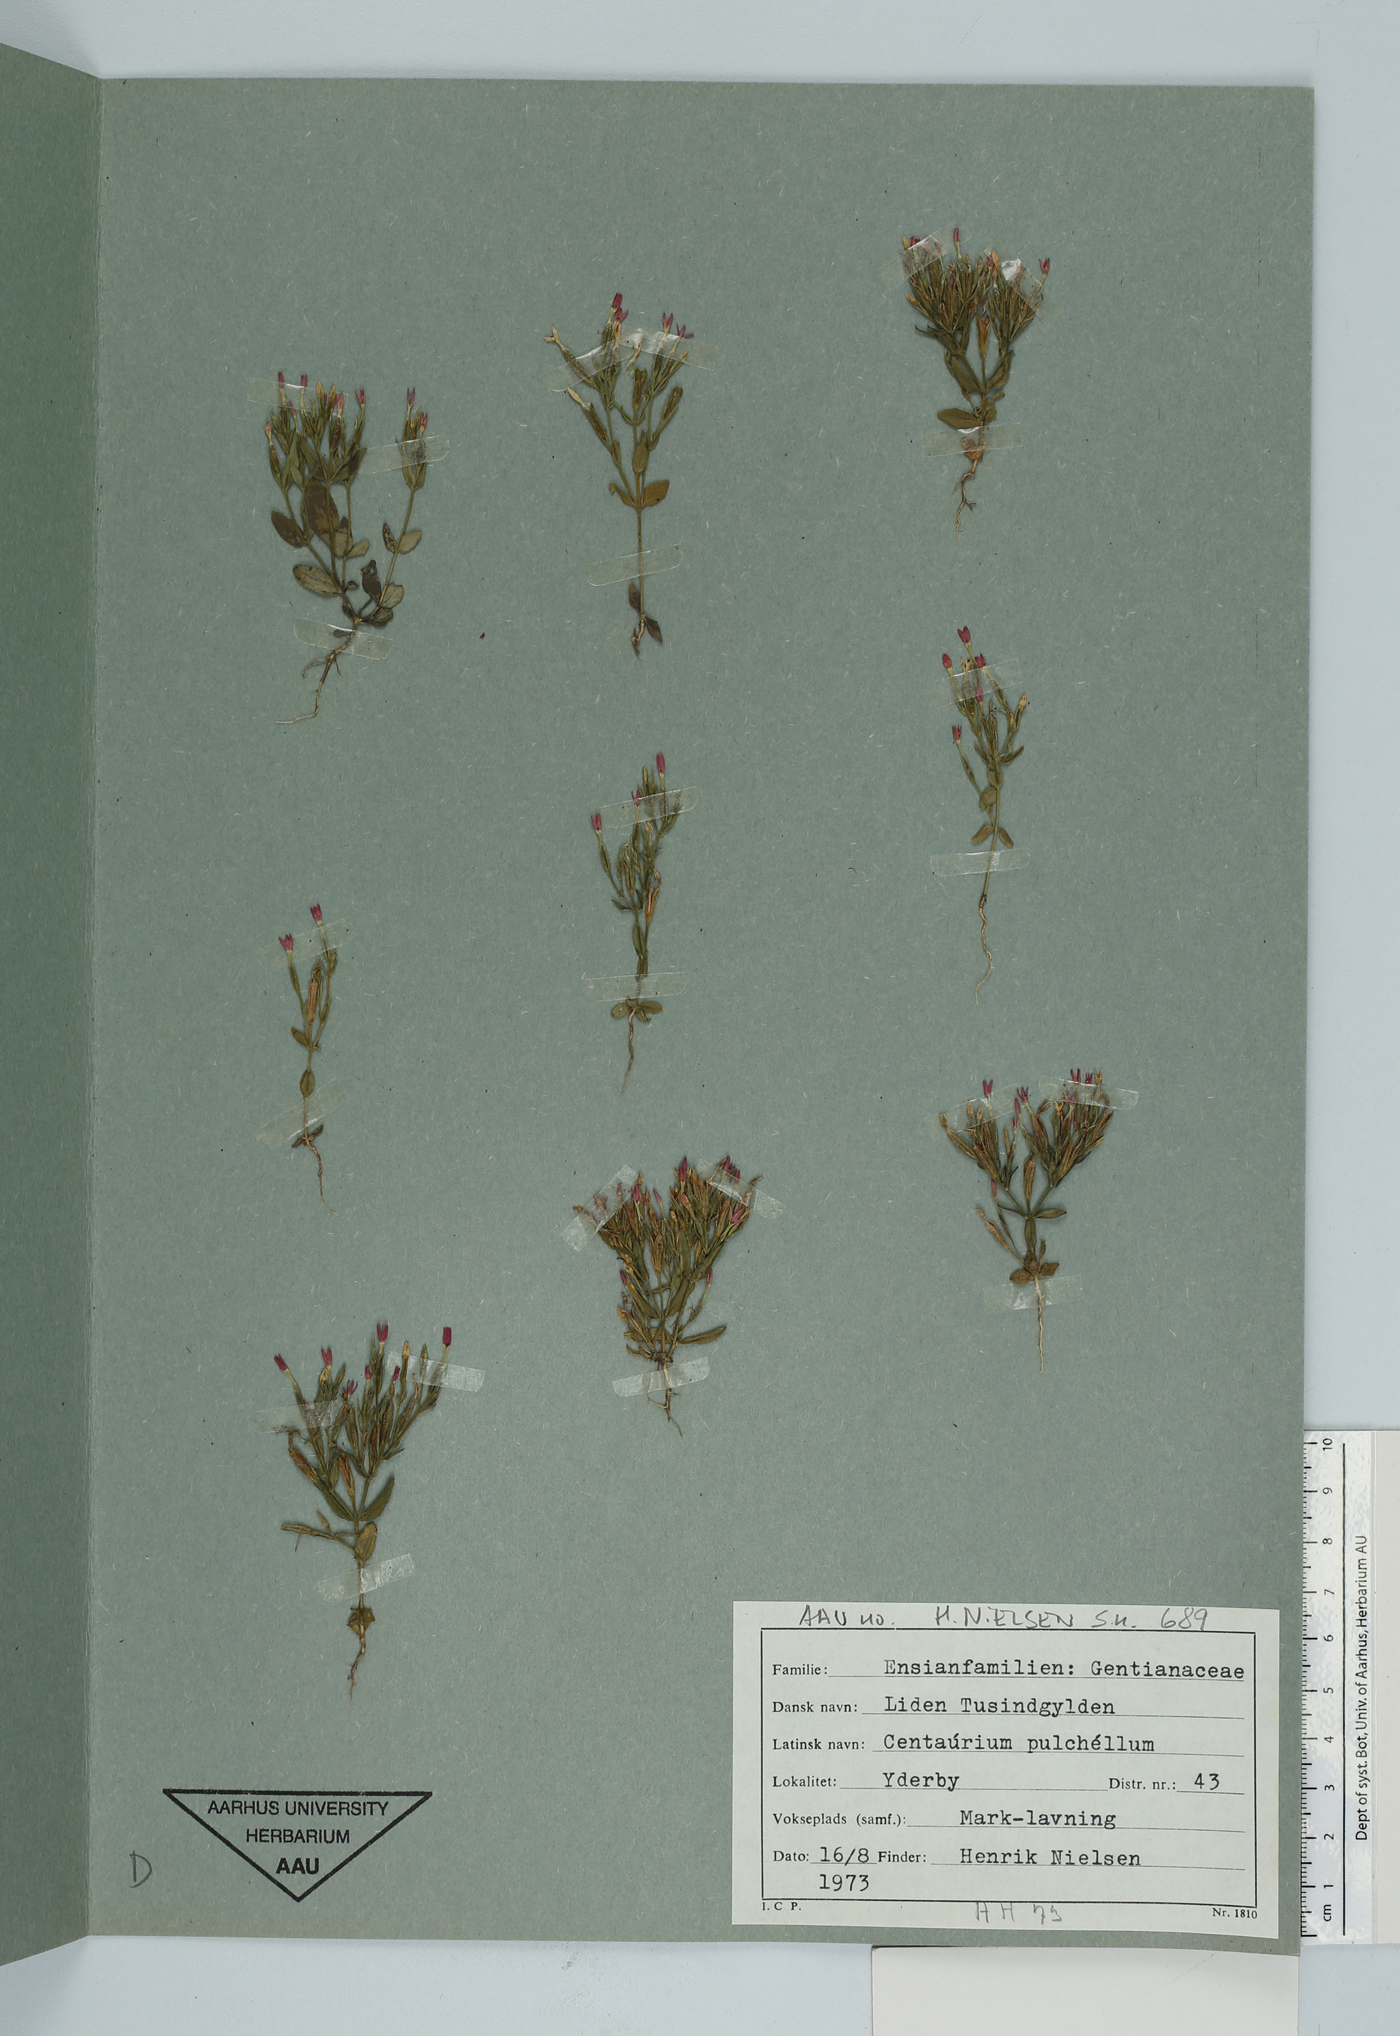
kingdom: Plantae
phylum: Tracheophyta
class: Magnoliopsida
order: Gentianales
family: Gentianaceae
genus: Centaurium
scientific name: Centaurium pulchellum
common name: Lesser centaury
